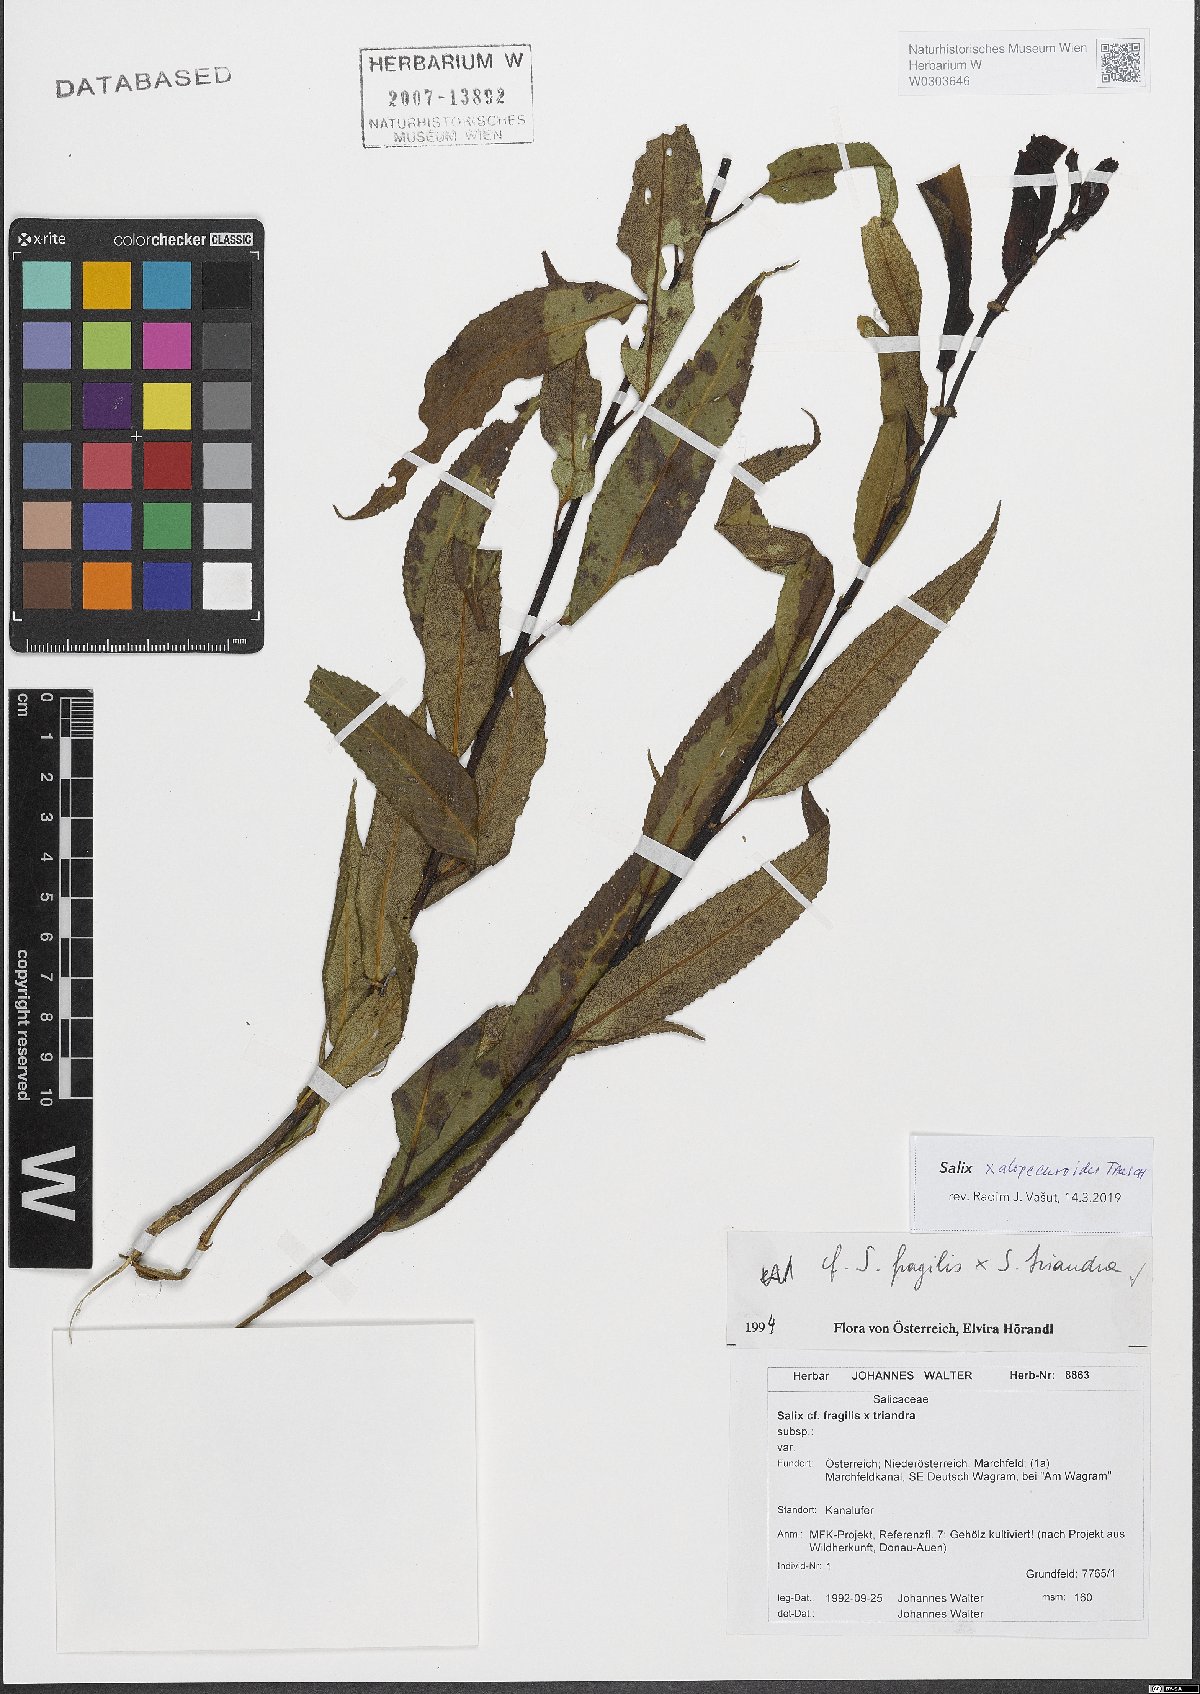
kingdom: Plantae
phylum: Tracheophyta
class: Magnoliopsida
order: Malpighiales
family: Salicaceae
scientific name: Salicaceae
